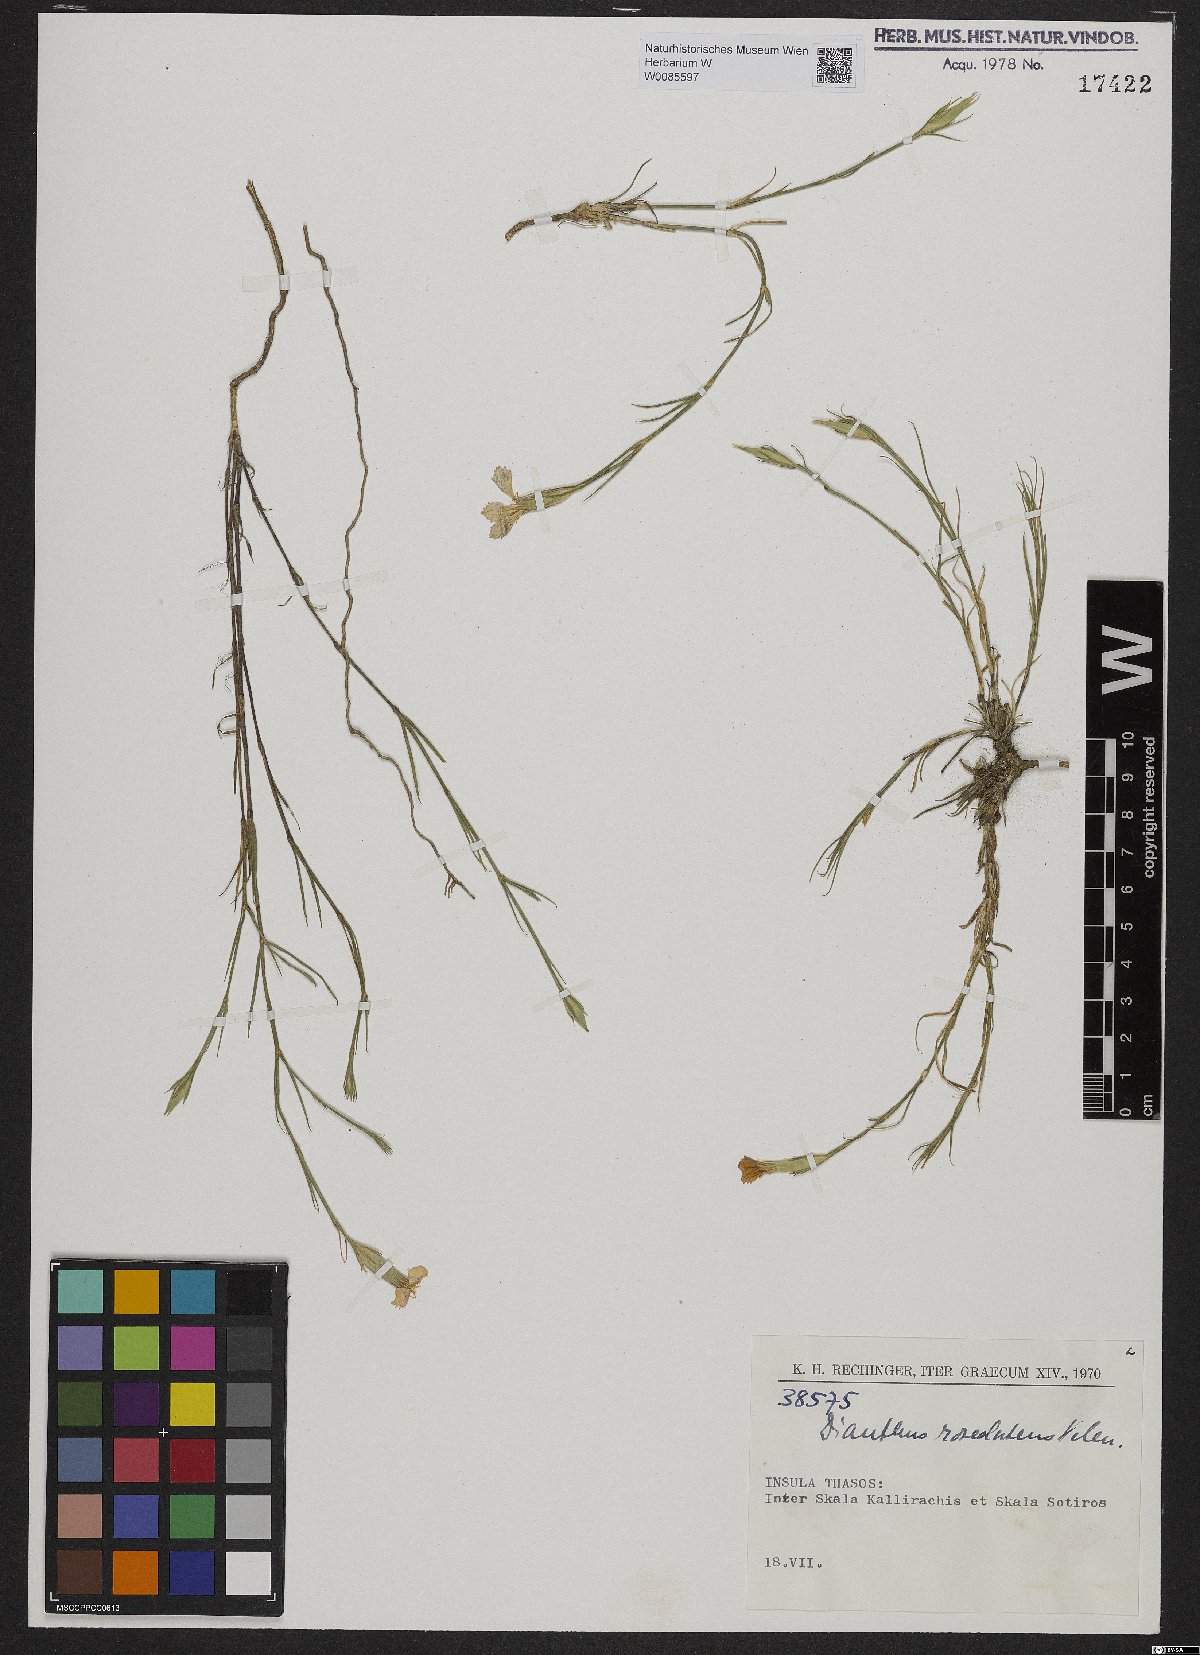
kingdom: Plantae
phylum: Tracheophyta
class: Magnoliopsida
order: Caryophyllales
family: Caryophyllaceae
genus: Dianthus
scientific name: Dianthus roseoluteus
